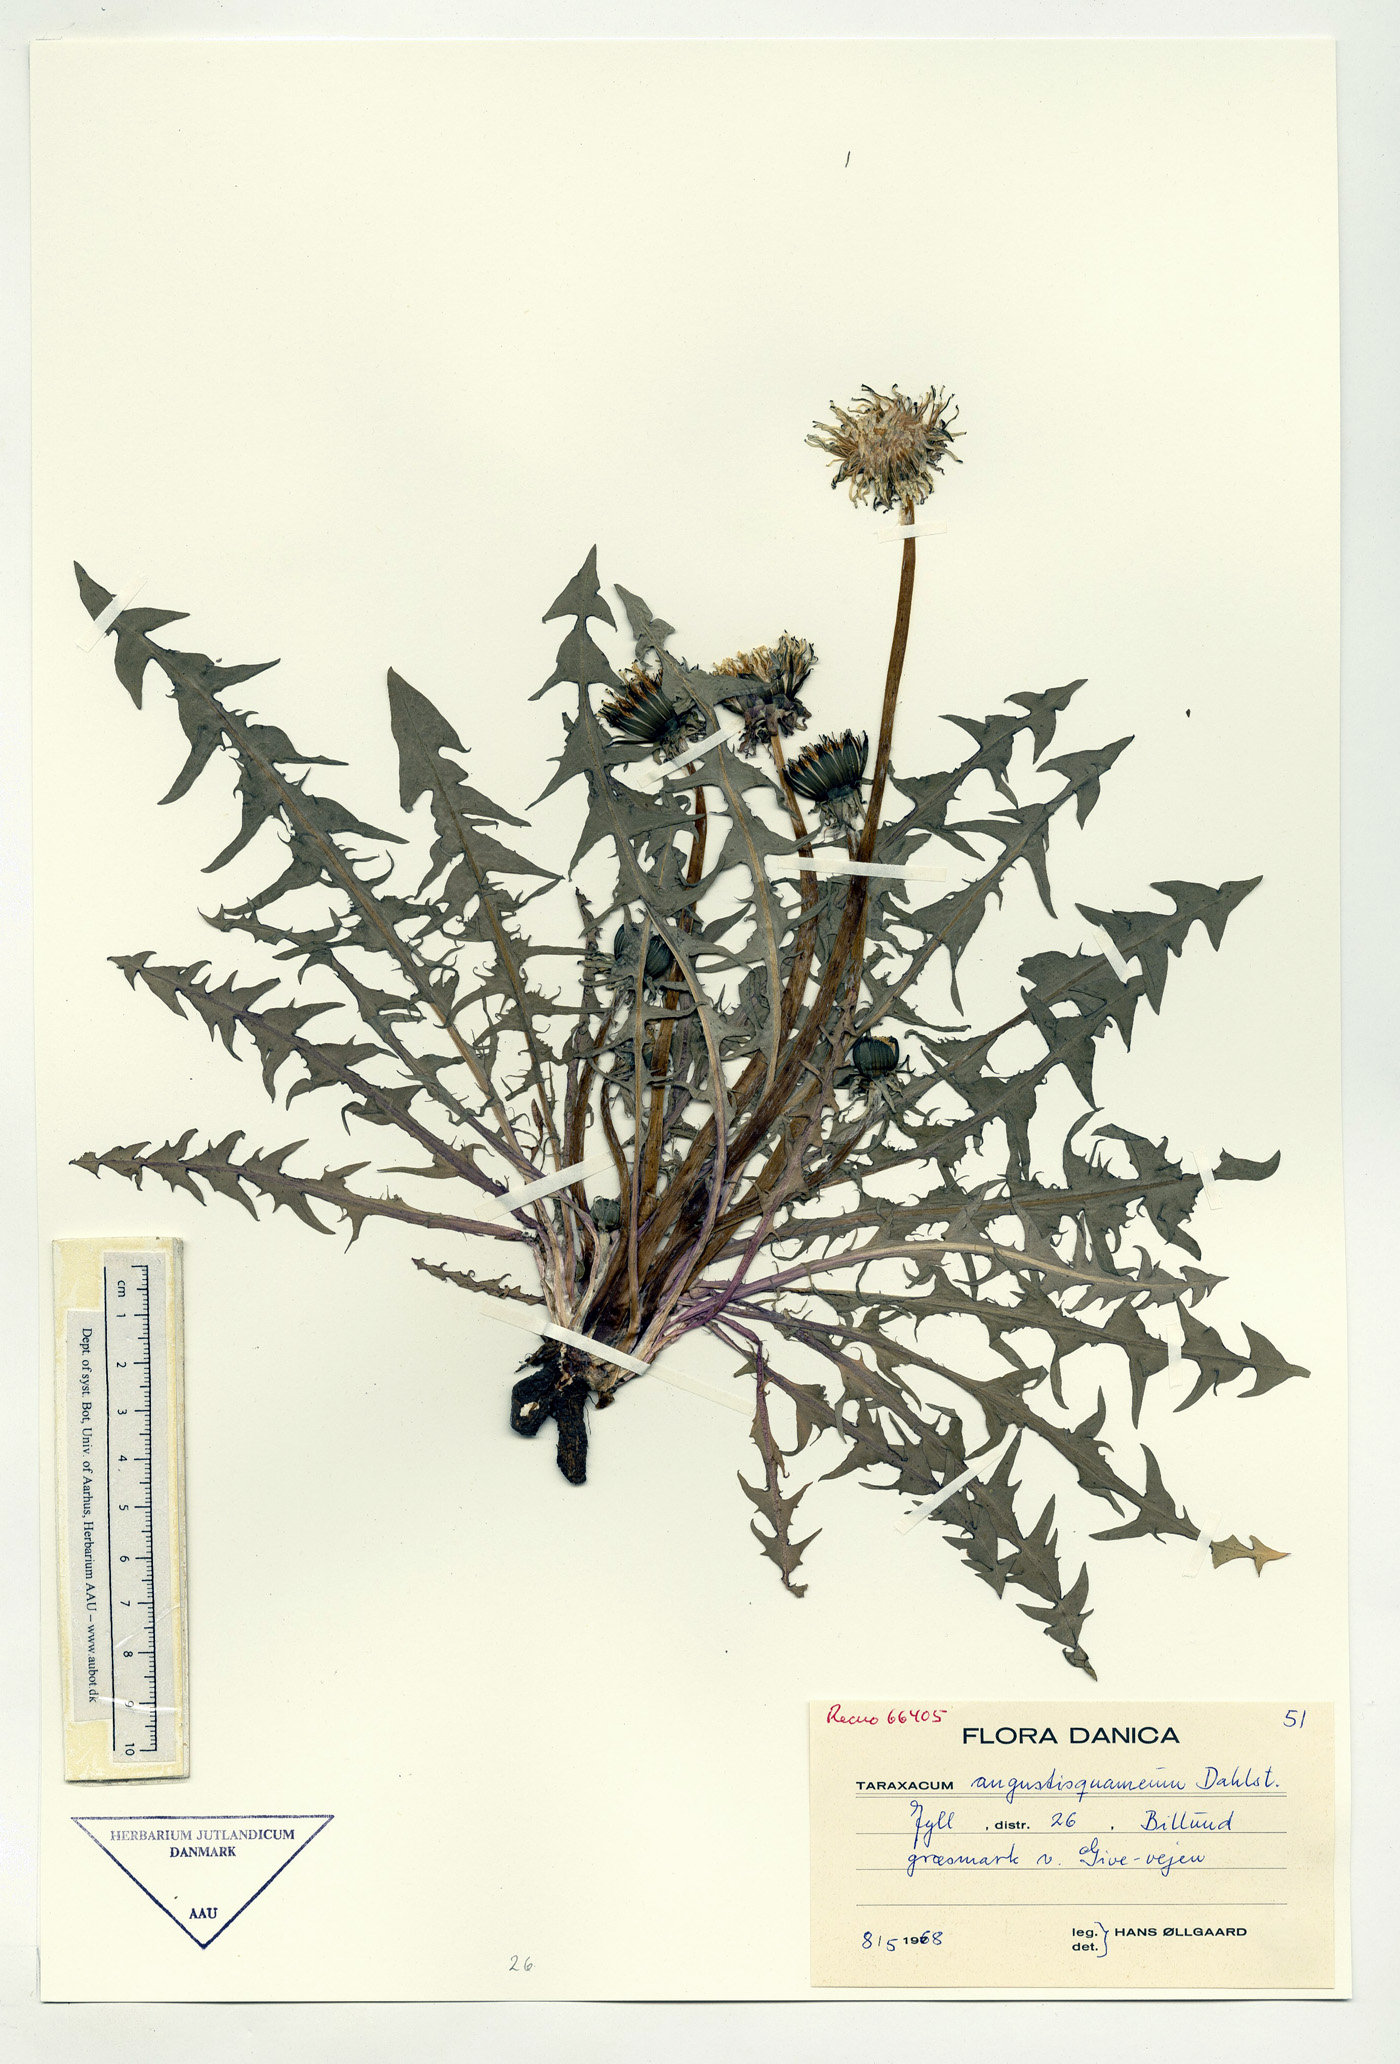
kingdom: Plantae
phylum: Tracheophyta
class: Magnoliopsida
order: Asterales
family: Asteraceae
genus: Taraxacum
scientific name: Taraxacum angustisquameum
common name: Multilobed dandelion
